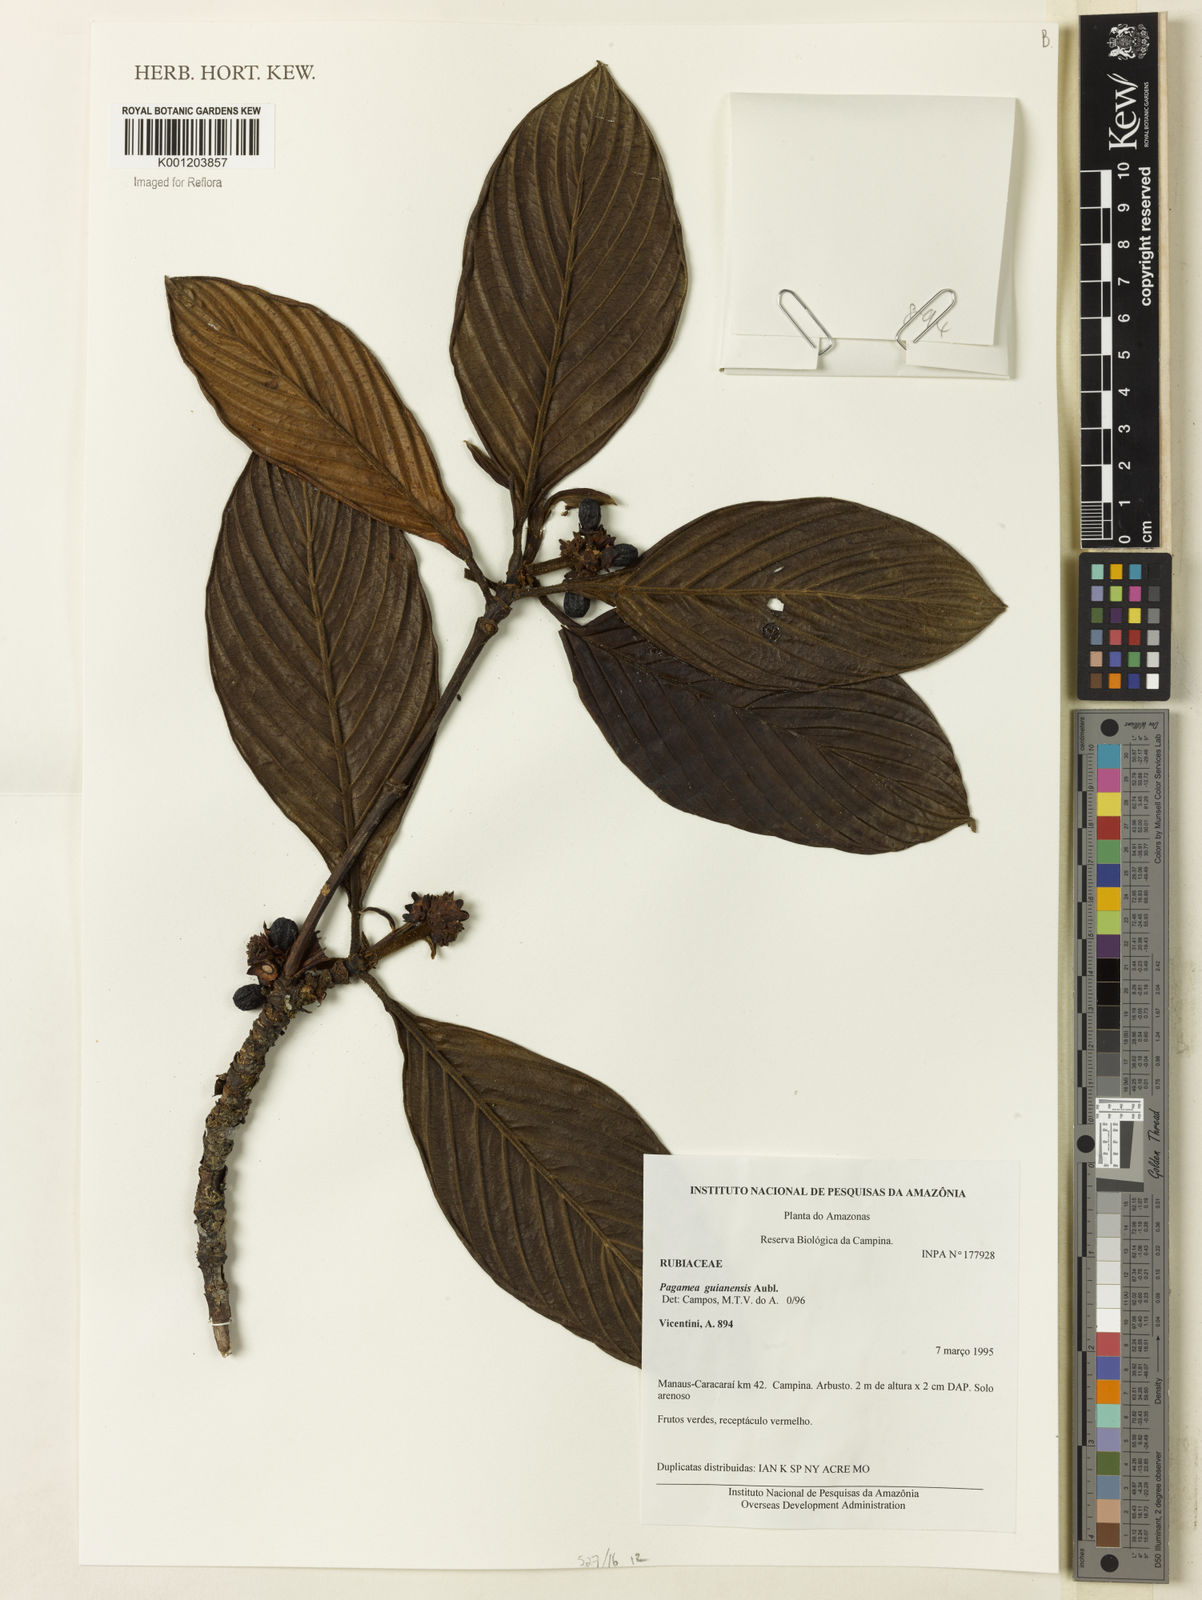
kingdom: Plantae
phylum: Tracheophyta
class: Magnoliopsida
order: Gentianales
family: Rubiaceae
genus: Pagamea
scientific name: Pagamea guianensis
